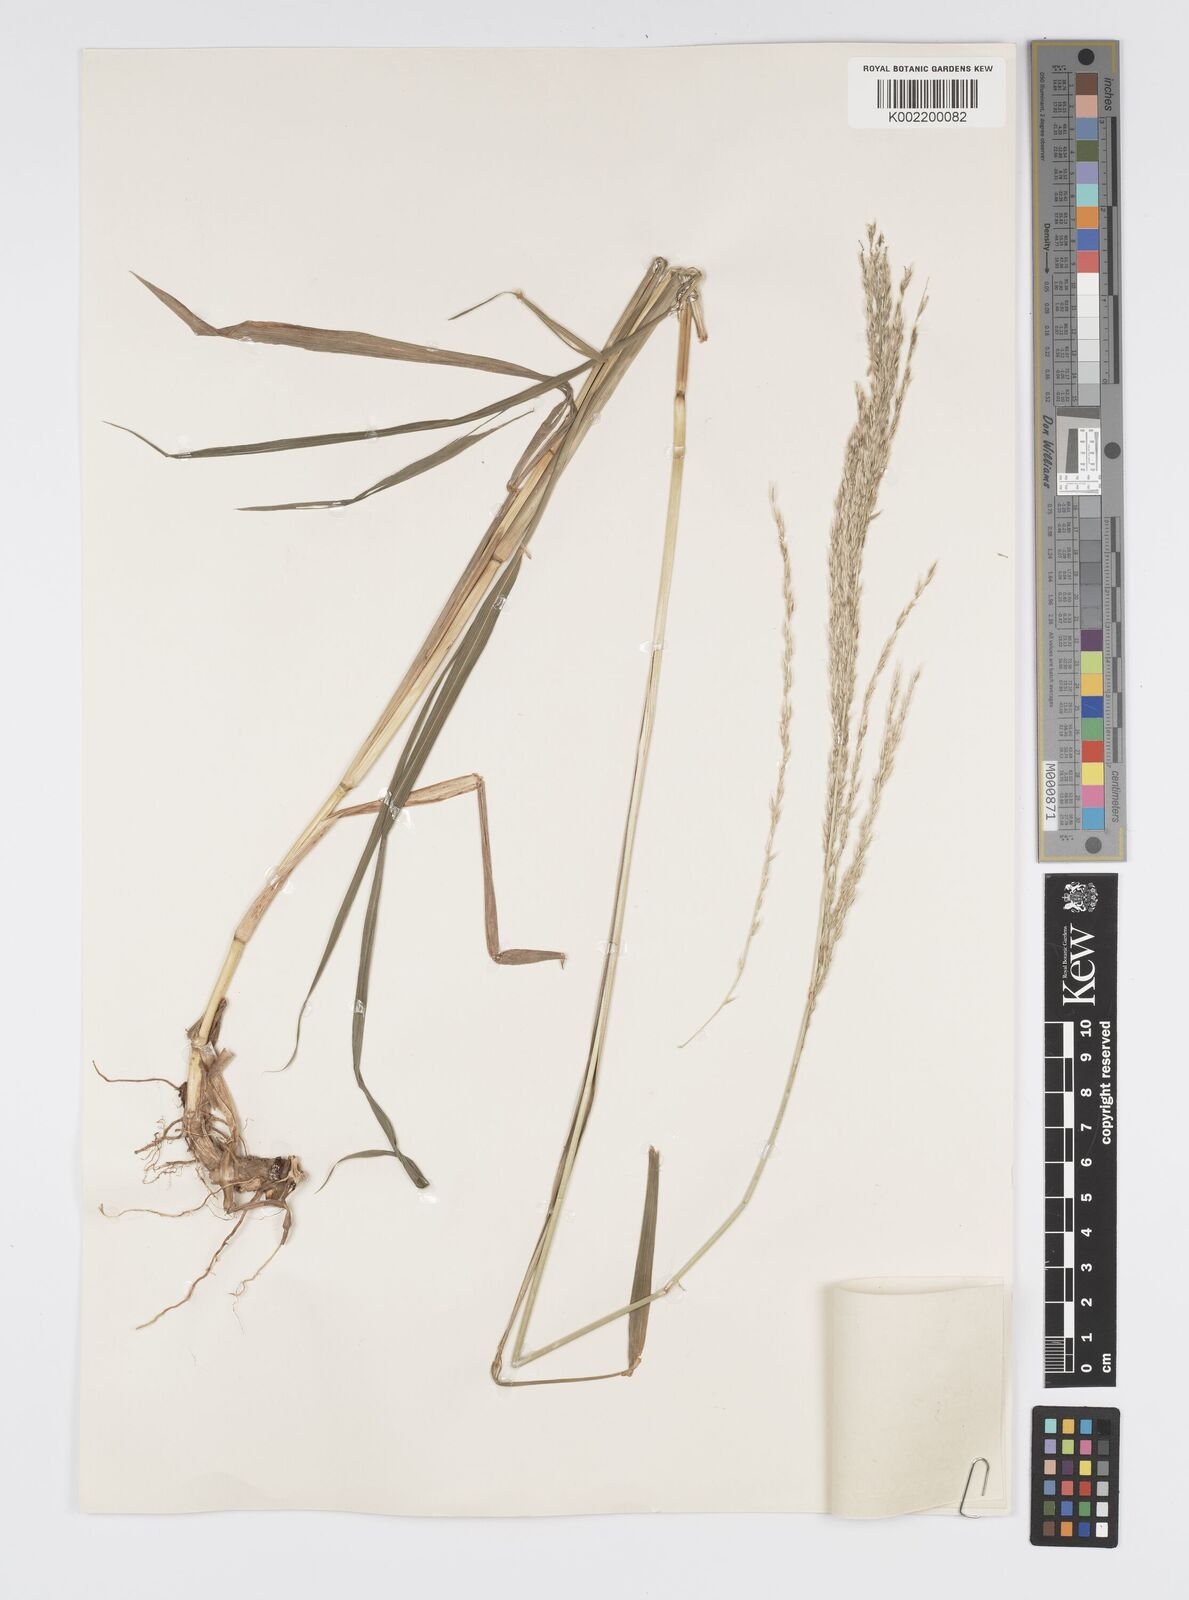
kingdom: Plantae
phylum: Tracheophyta
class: Liliopsida
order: Poales
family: Poaceae
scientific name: Poaceae
